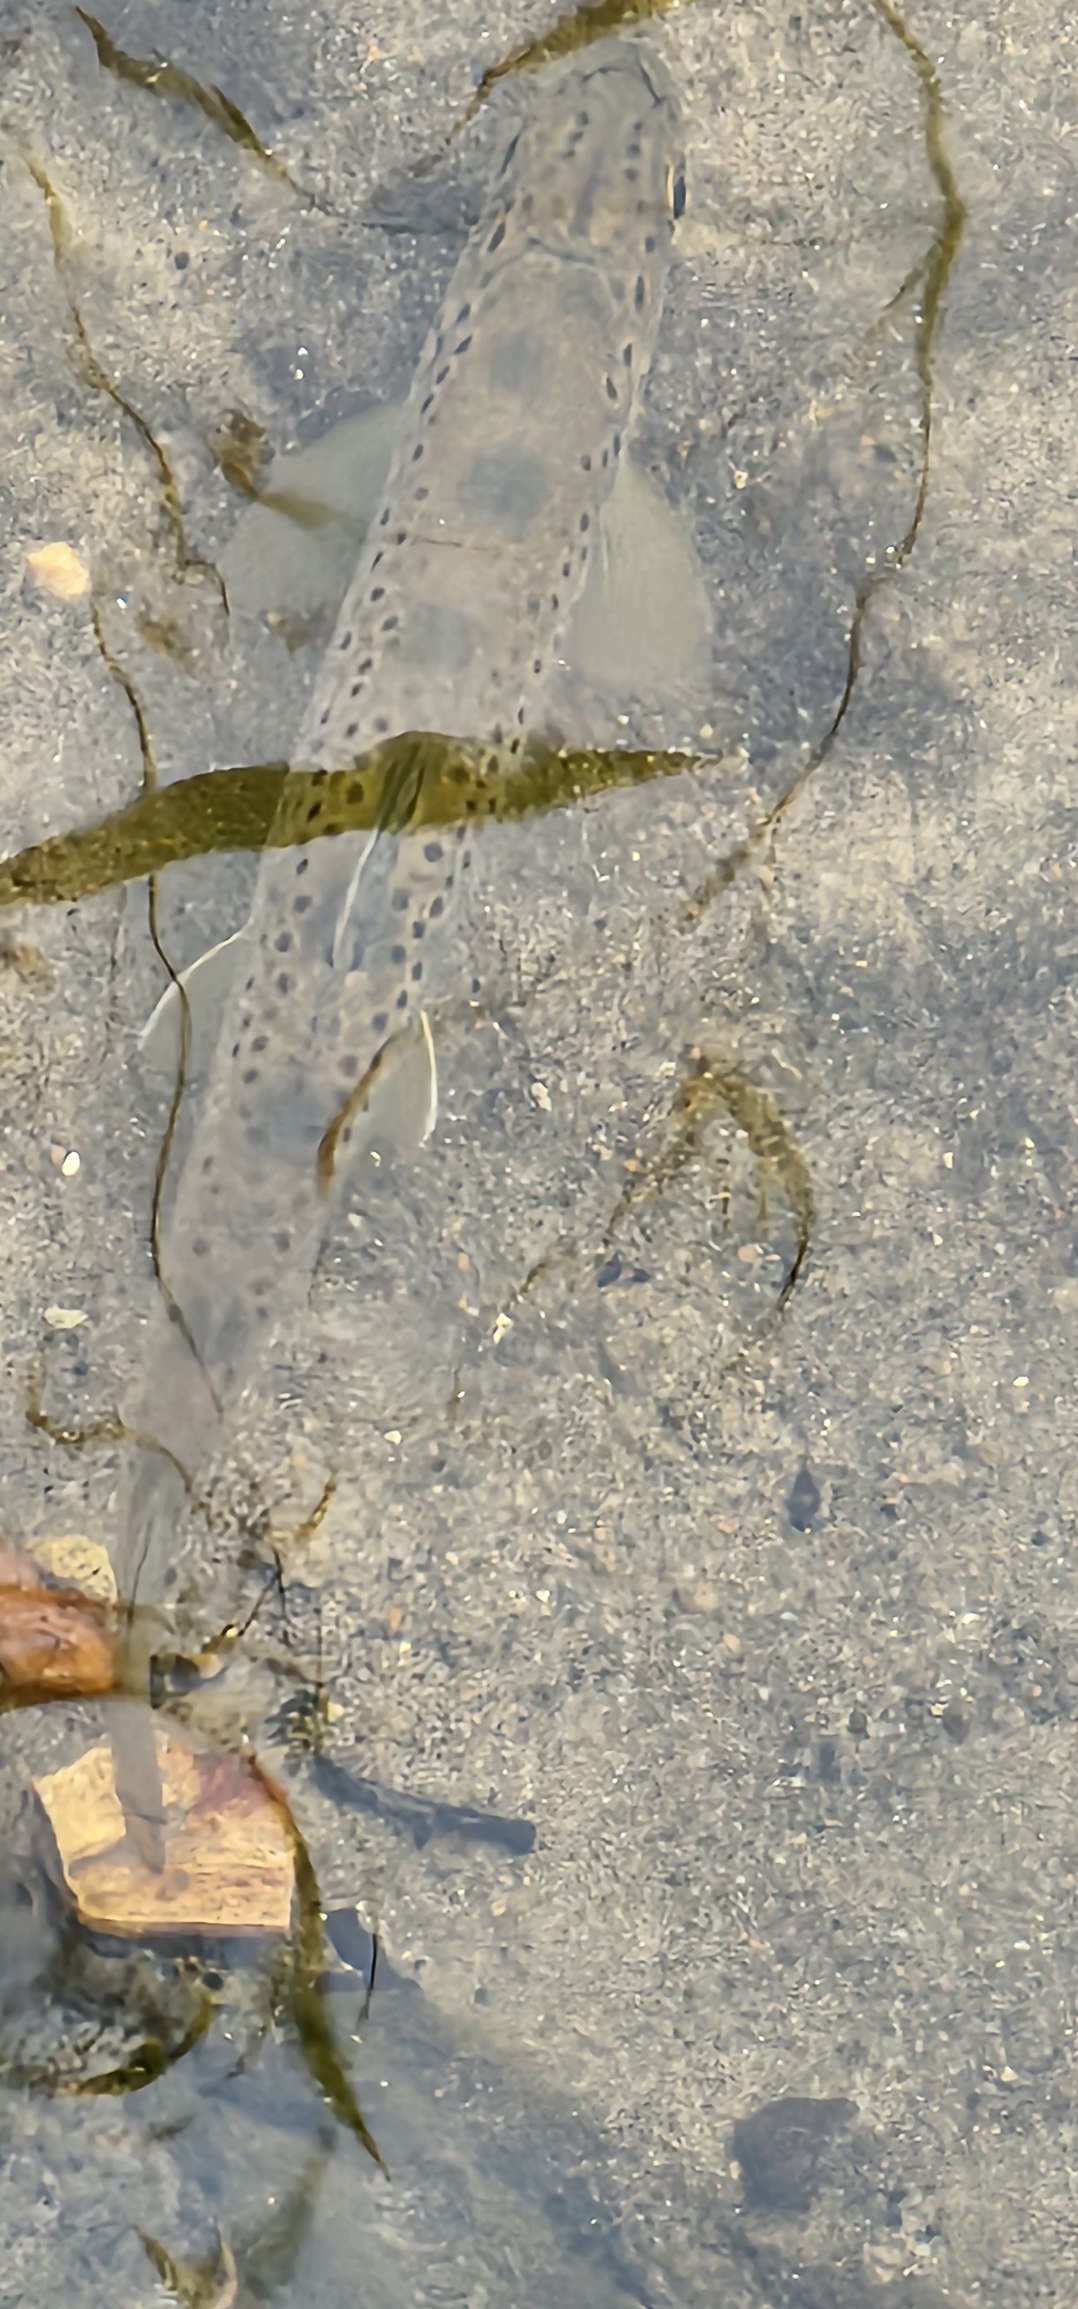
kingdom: Animalia
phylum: Chordata
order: Salmoniformes
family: Salmonidae
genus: Salmo
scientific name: Salmo trutta
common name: Ørred
